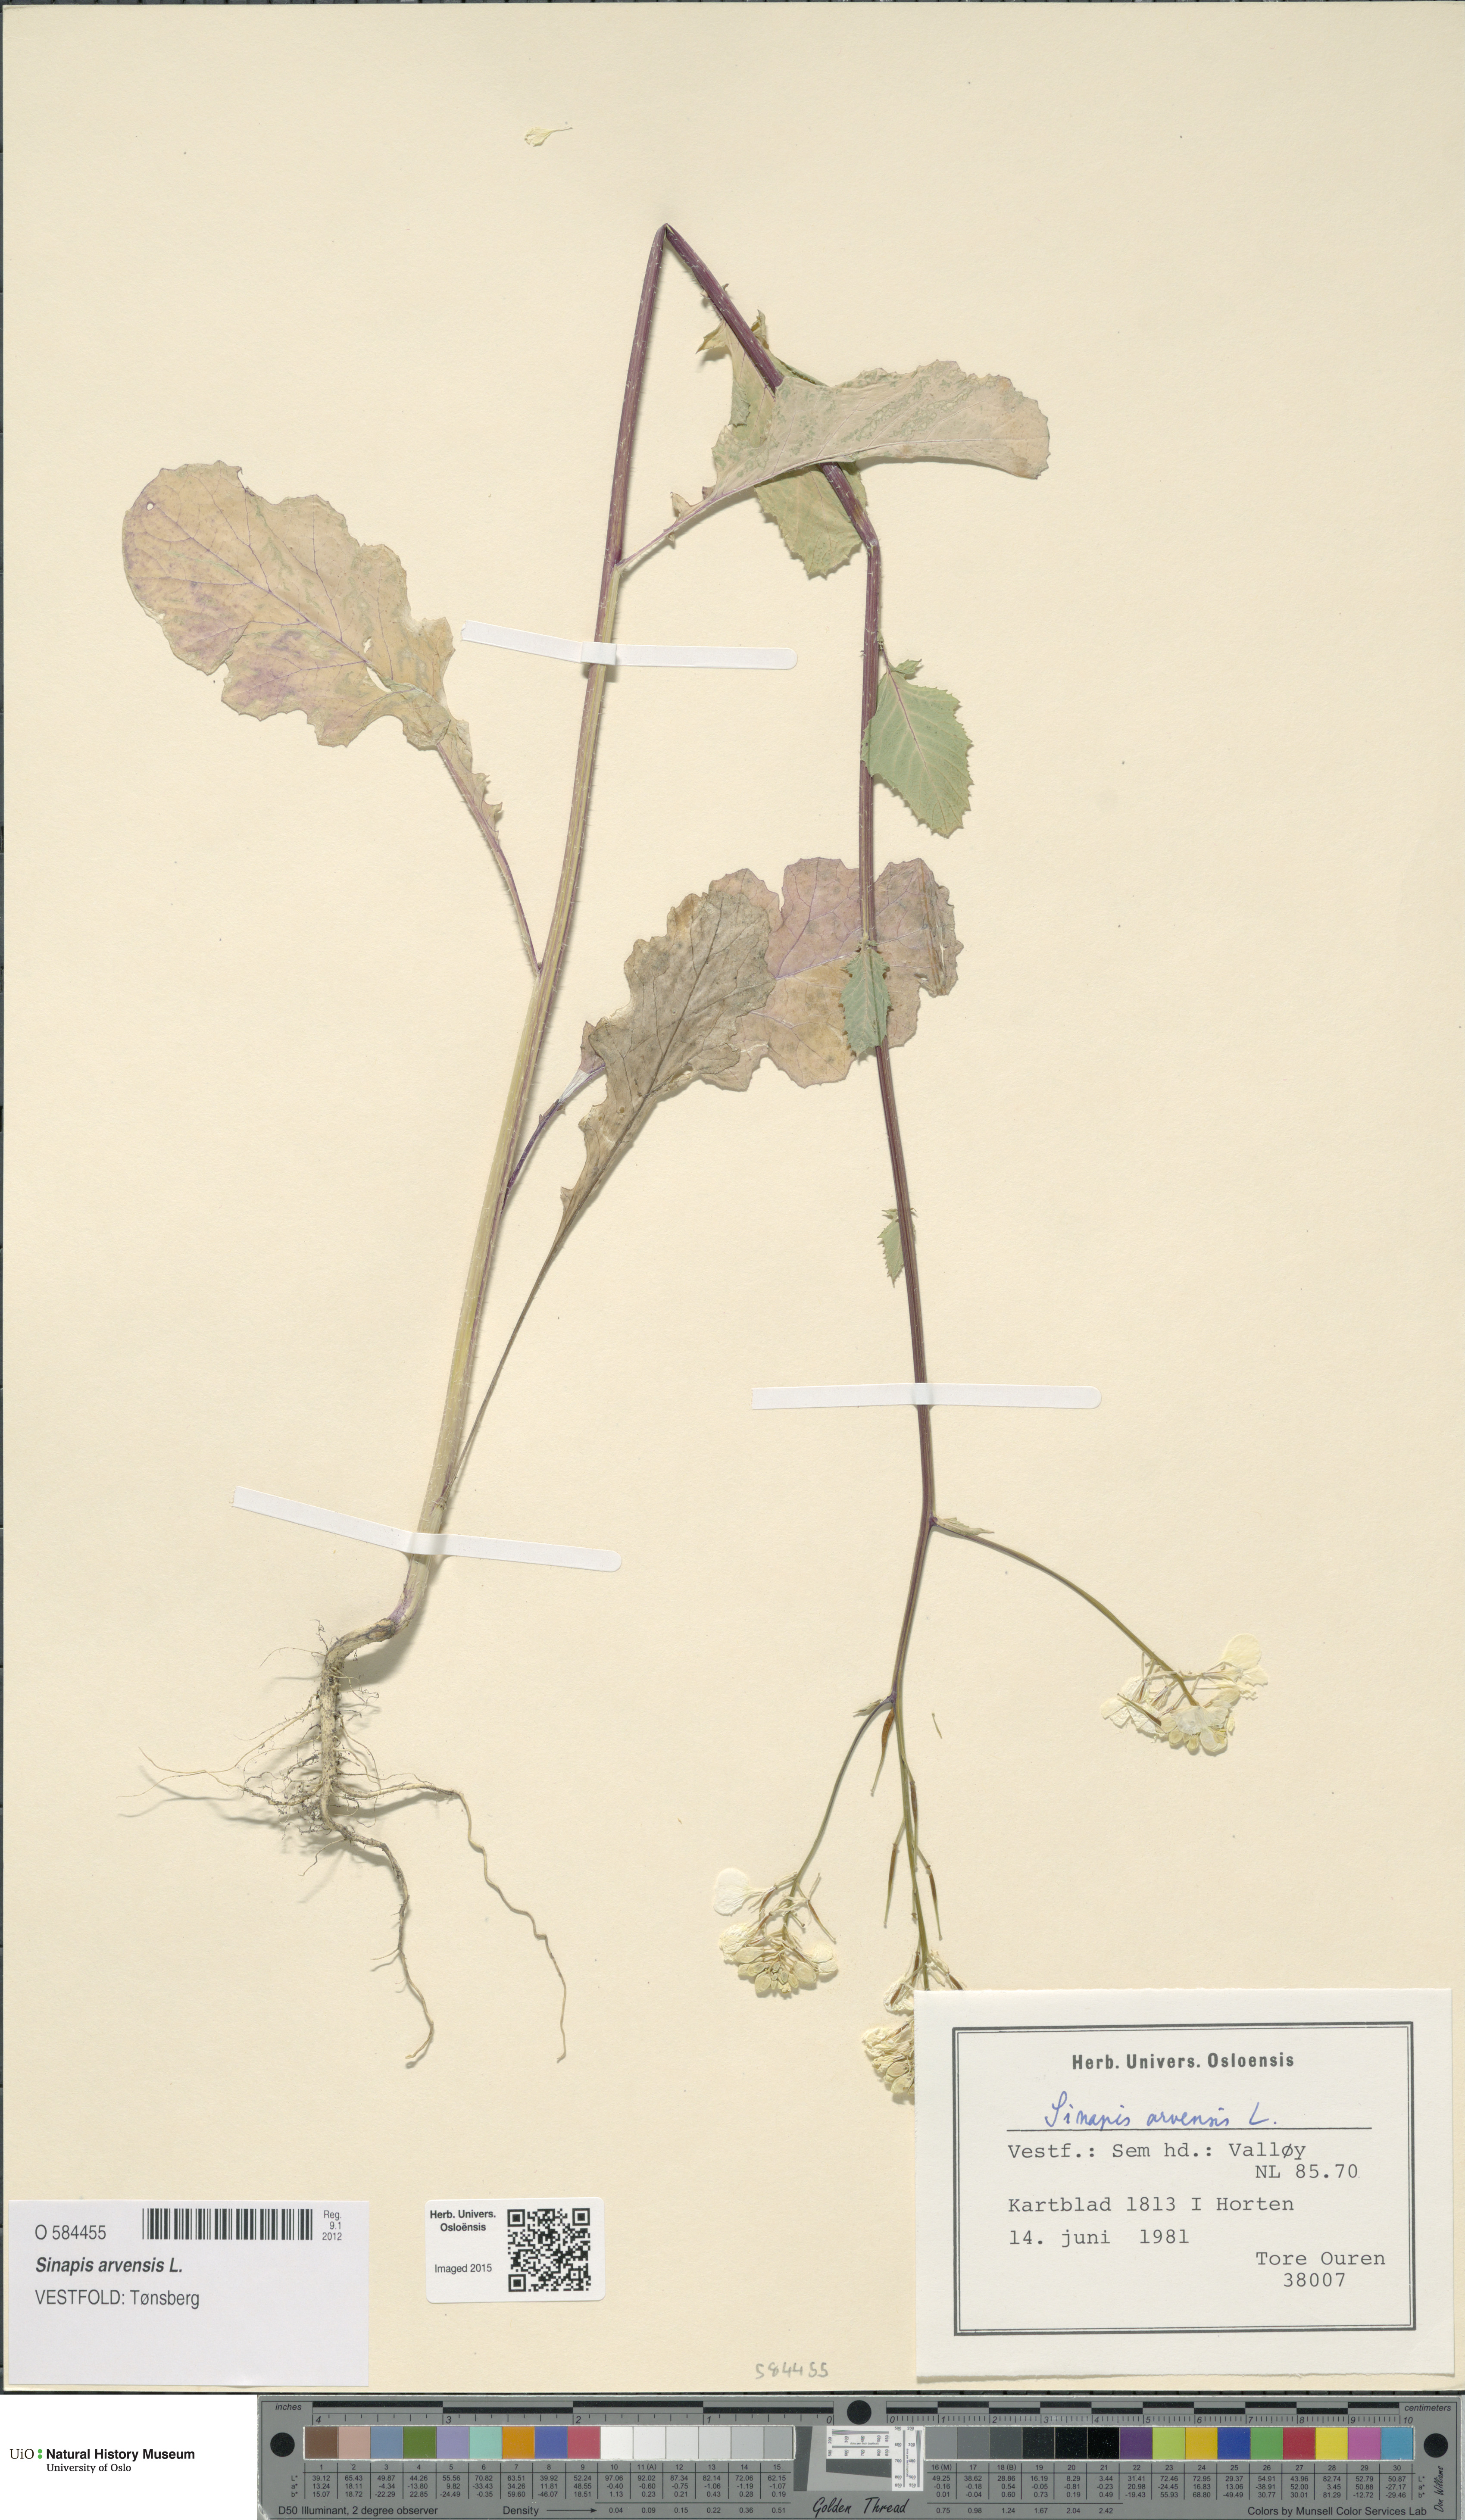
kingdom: Plantae
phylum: Tracheophyta
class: Magnoliopsida
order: Brassicales
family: Brassicaceae
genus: Sinapis
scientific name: Sinapis arvensis
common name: Charlock
